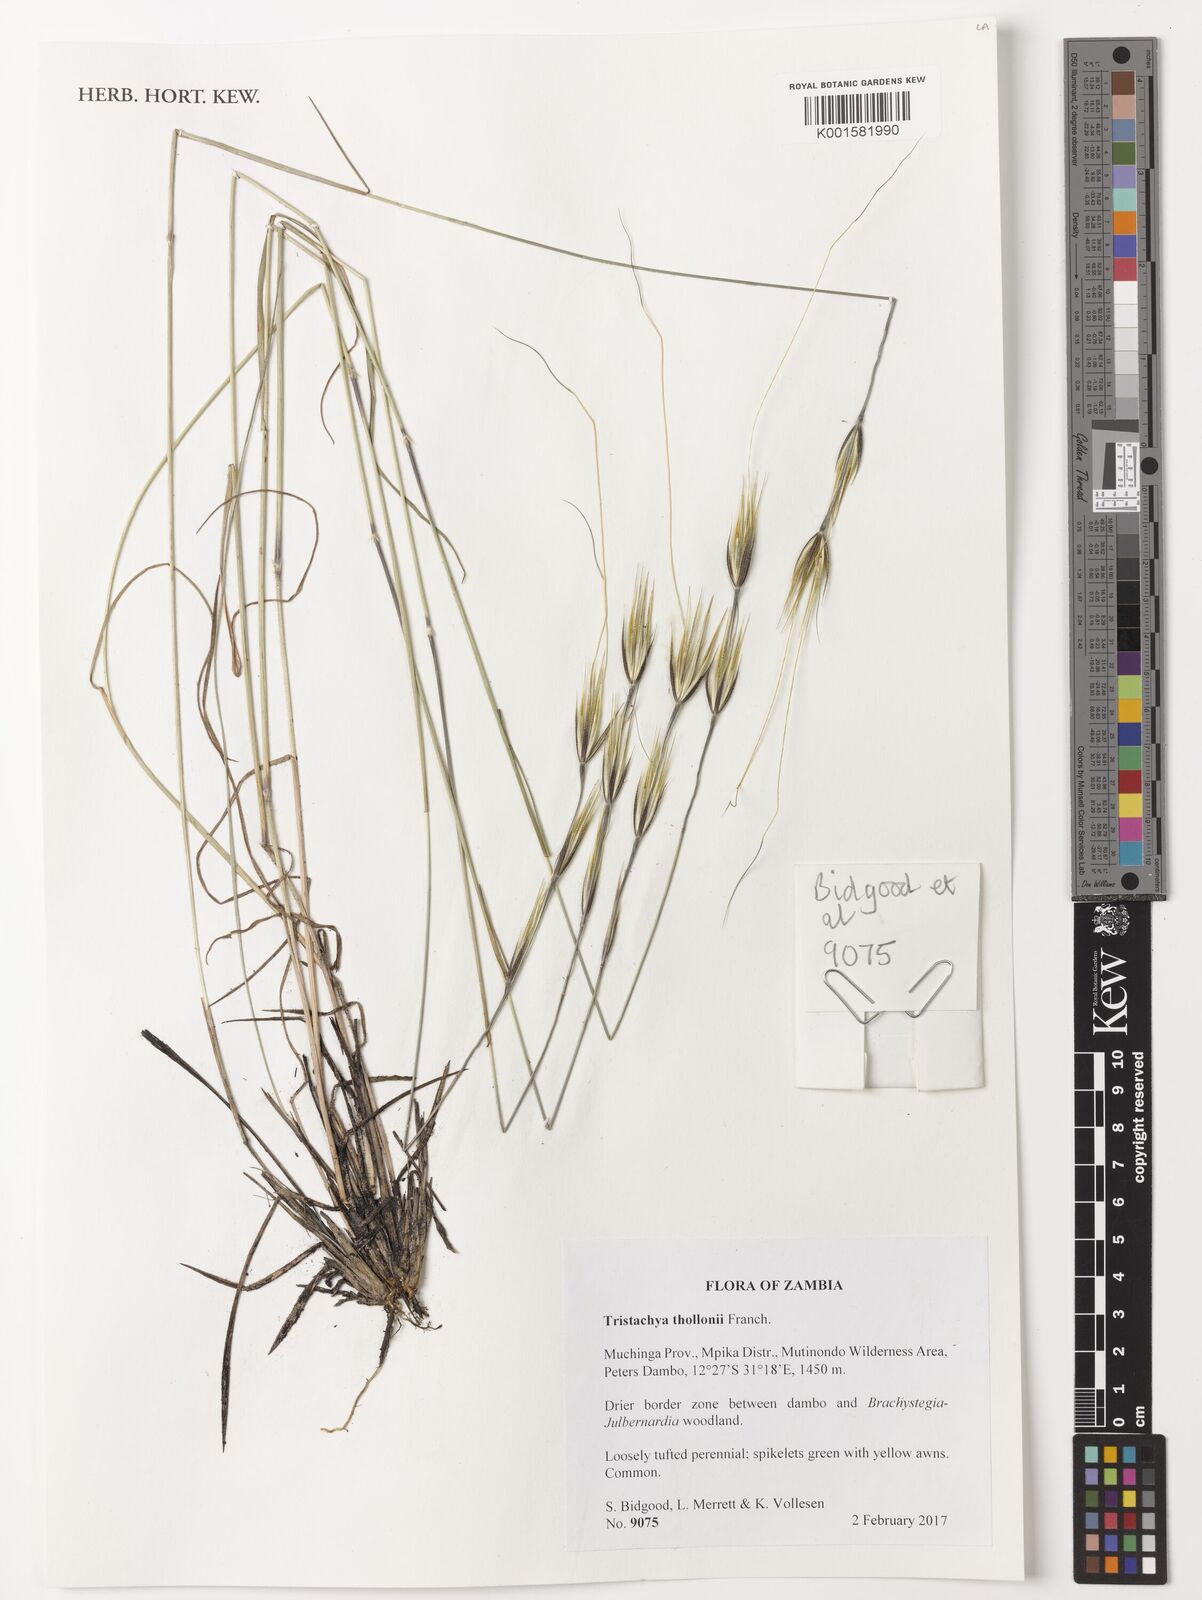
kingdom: Plantae
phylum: Tracheophyta
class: Liliopsida
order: Poales
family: Poaceae
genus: Tristachya
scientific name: Tristachya thollonii
